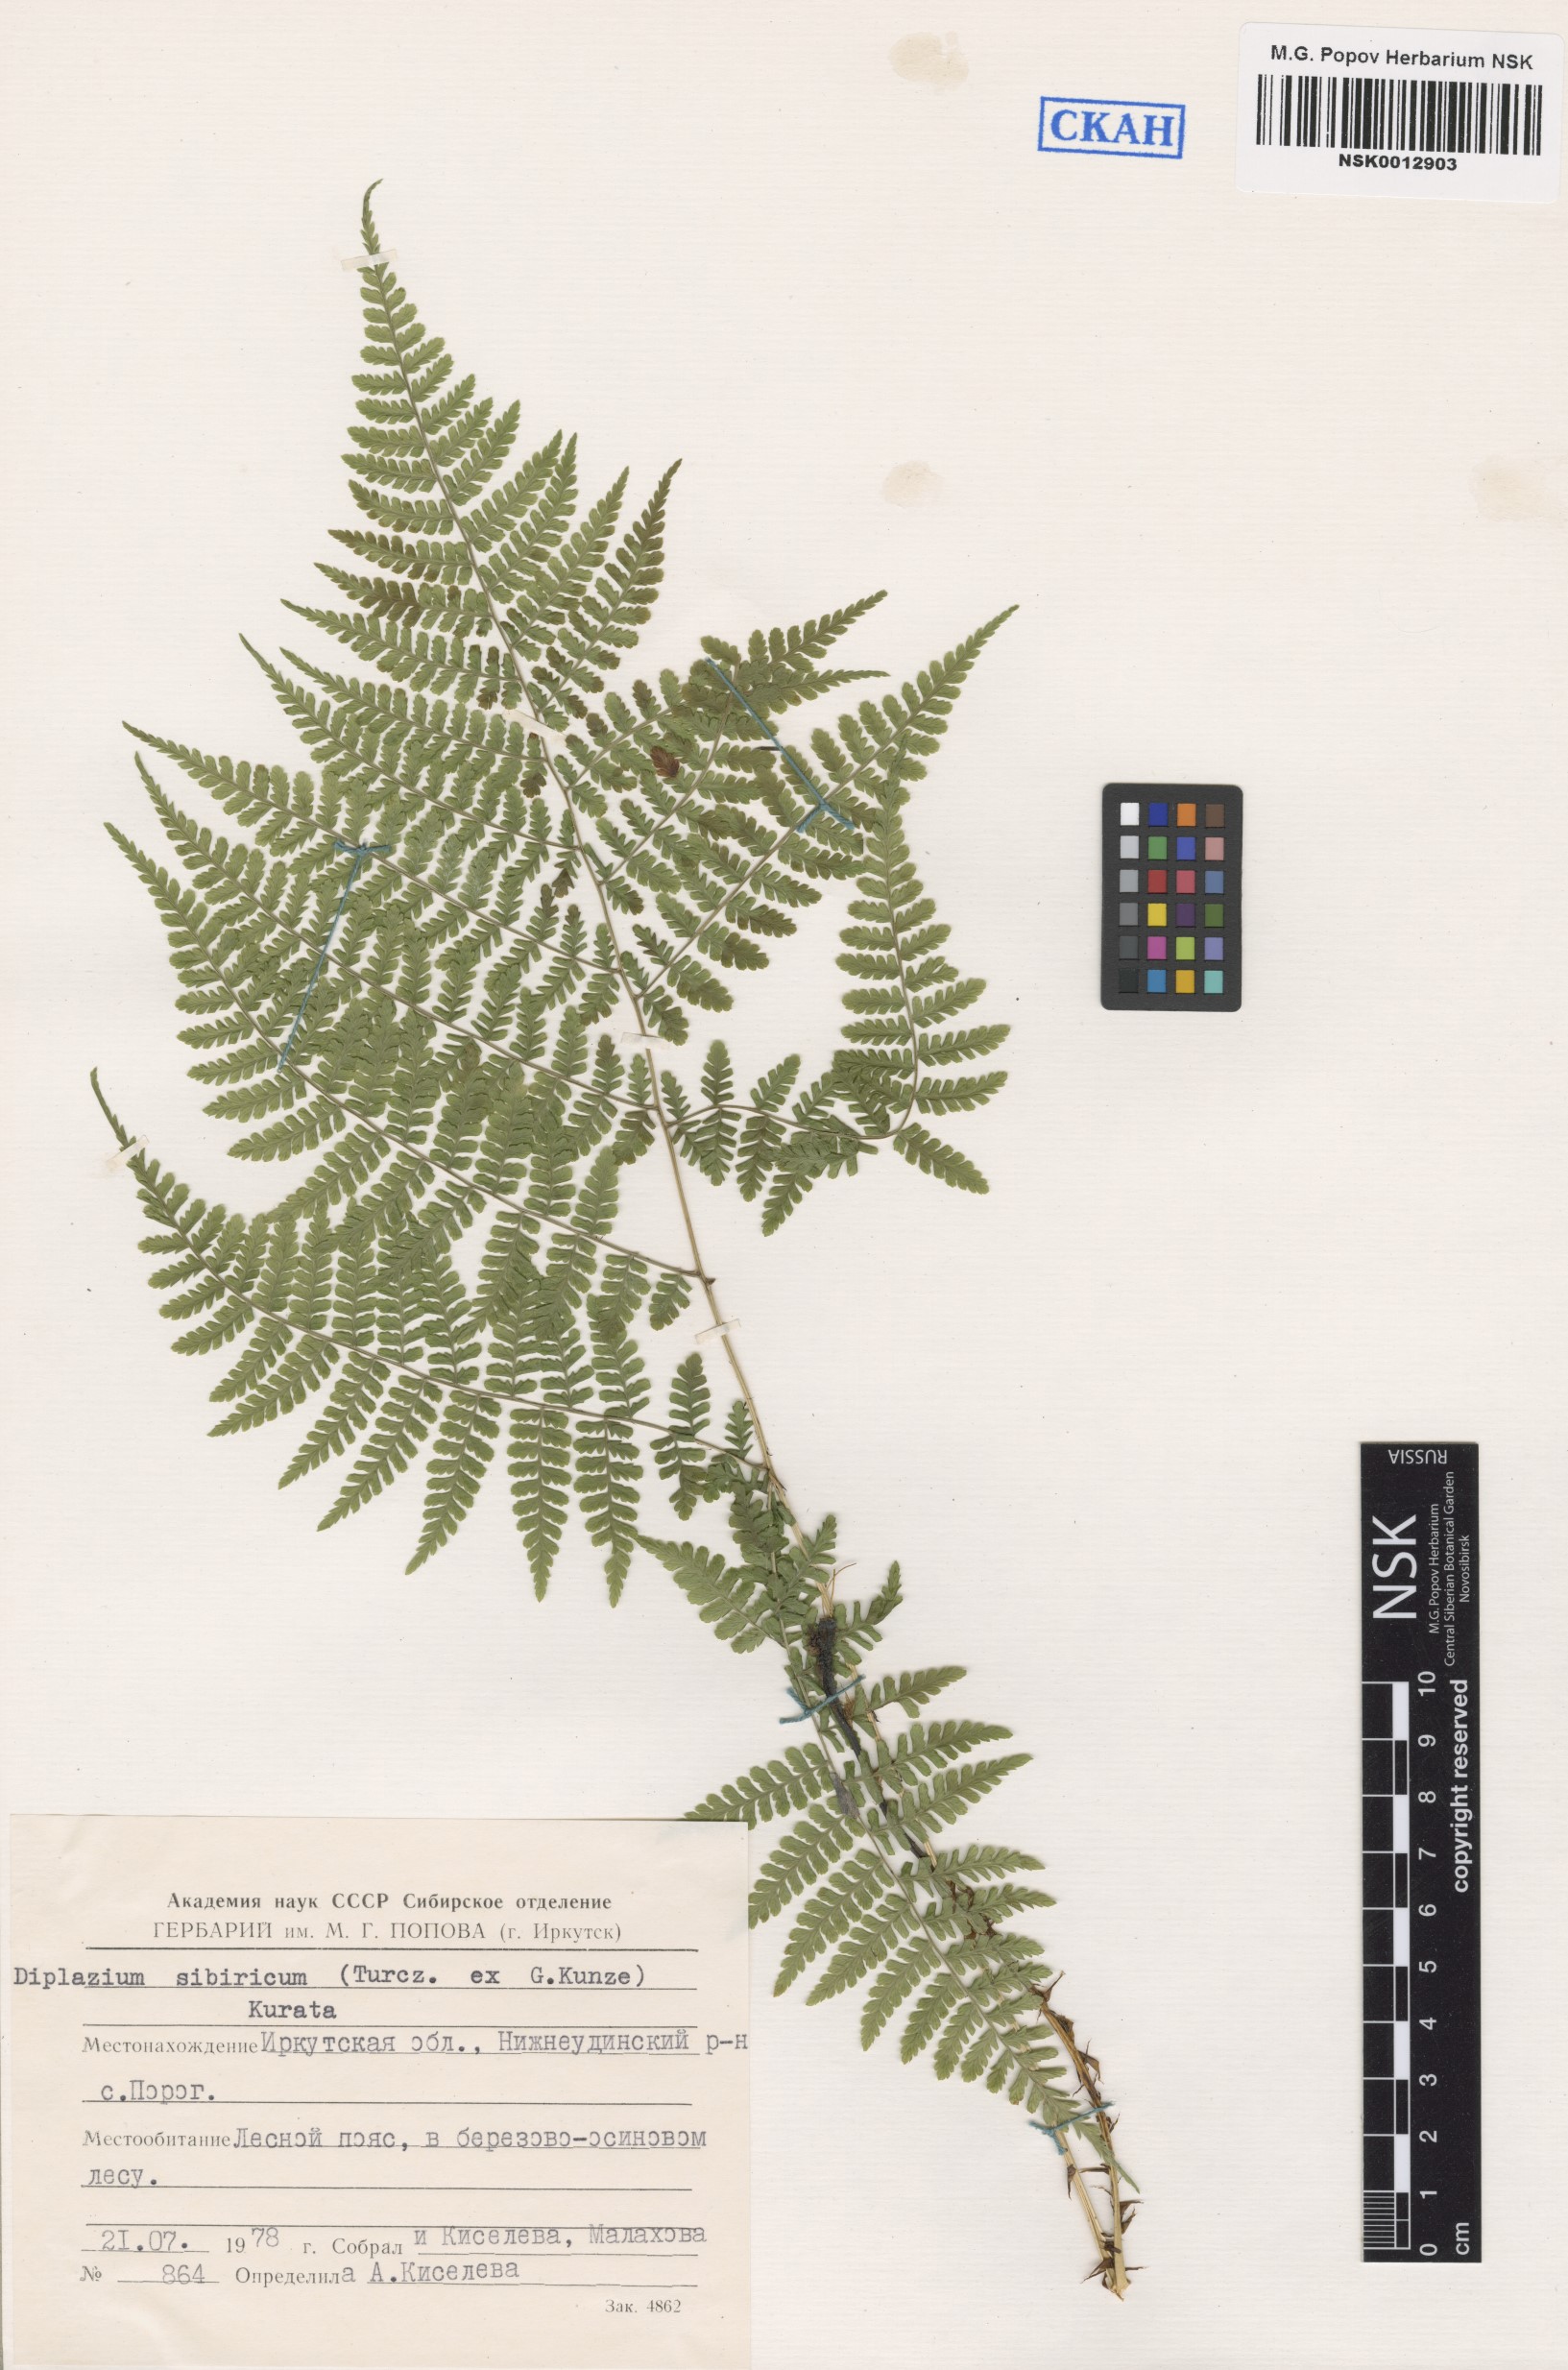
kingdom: Plantae
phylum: Tracheophyta
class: Polypodiopsida
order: Polypodiales
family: Athyriaceae
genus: Diplazium
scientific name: Diplazium sibiricum
